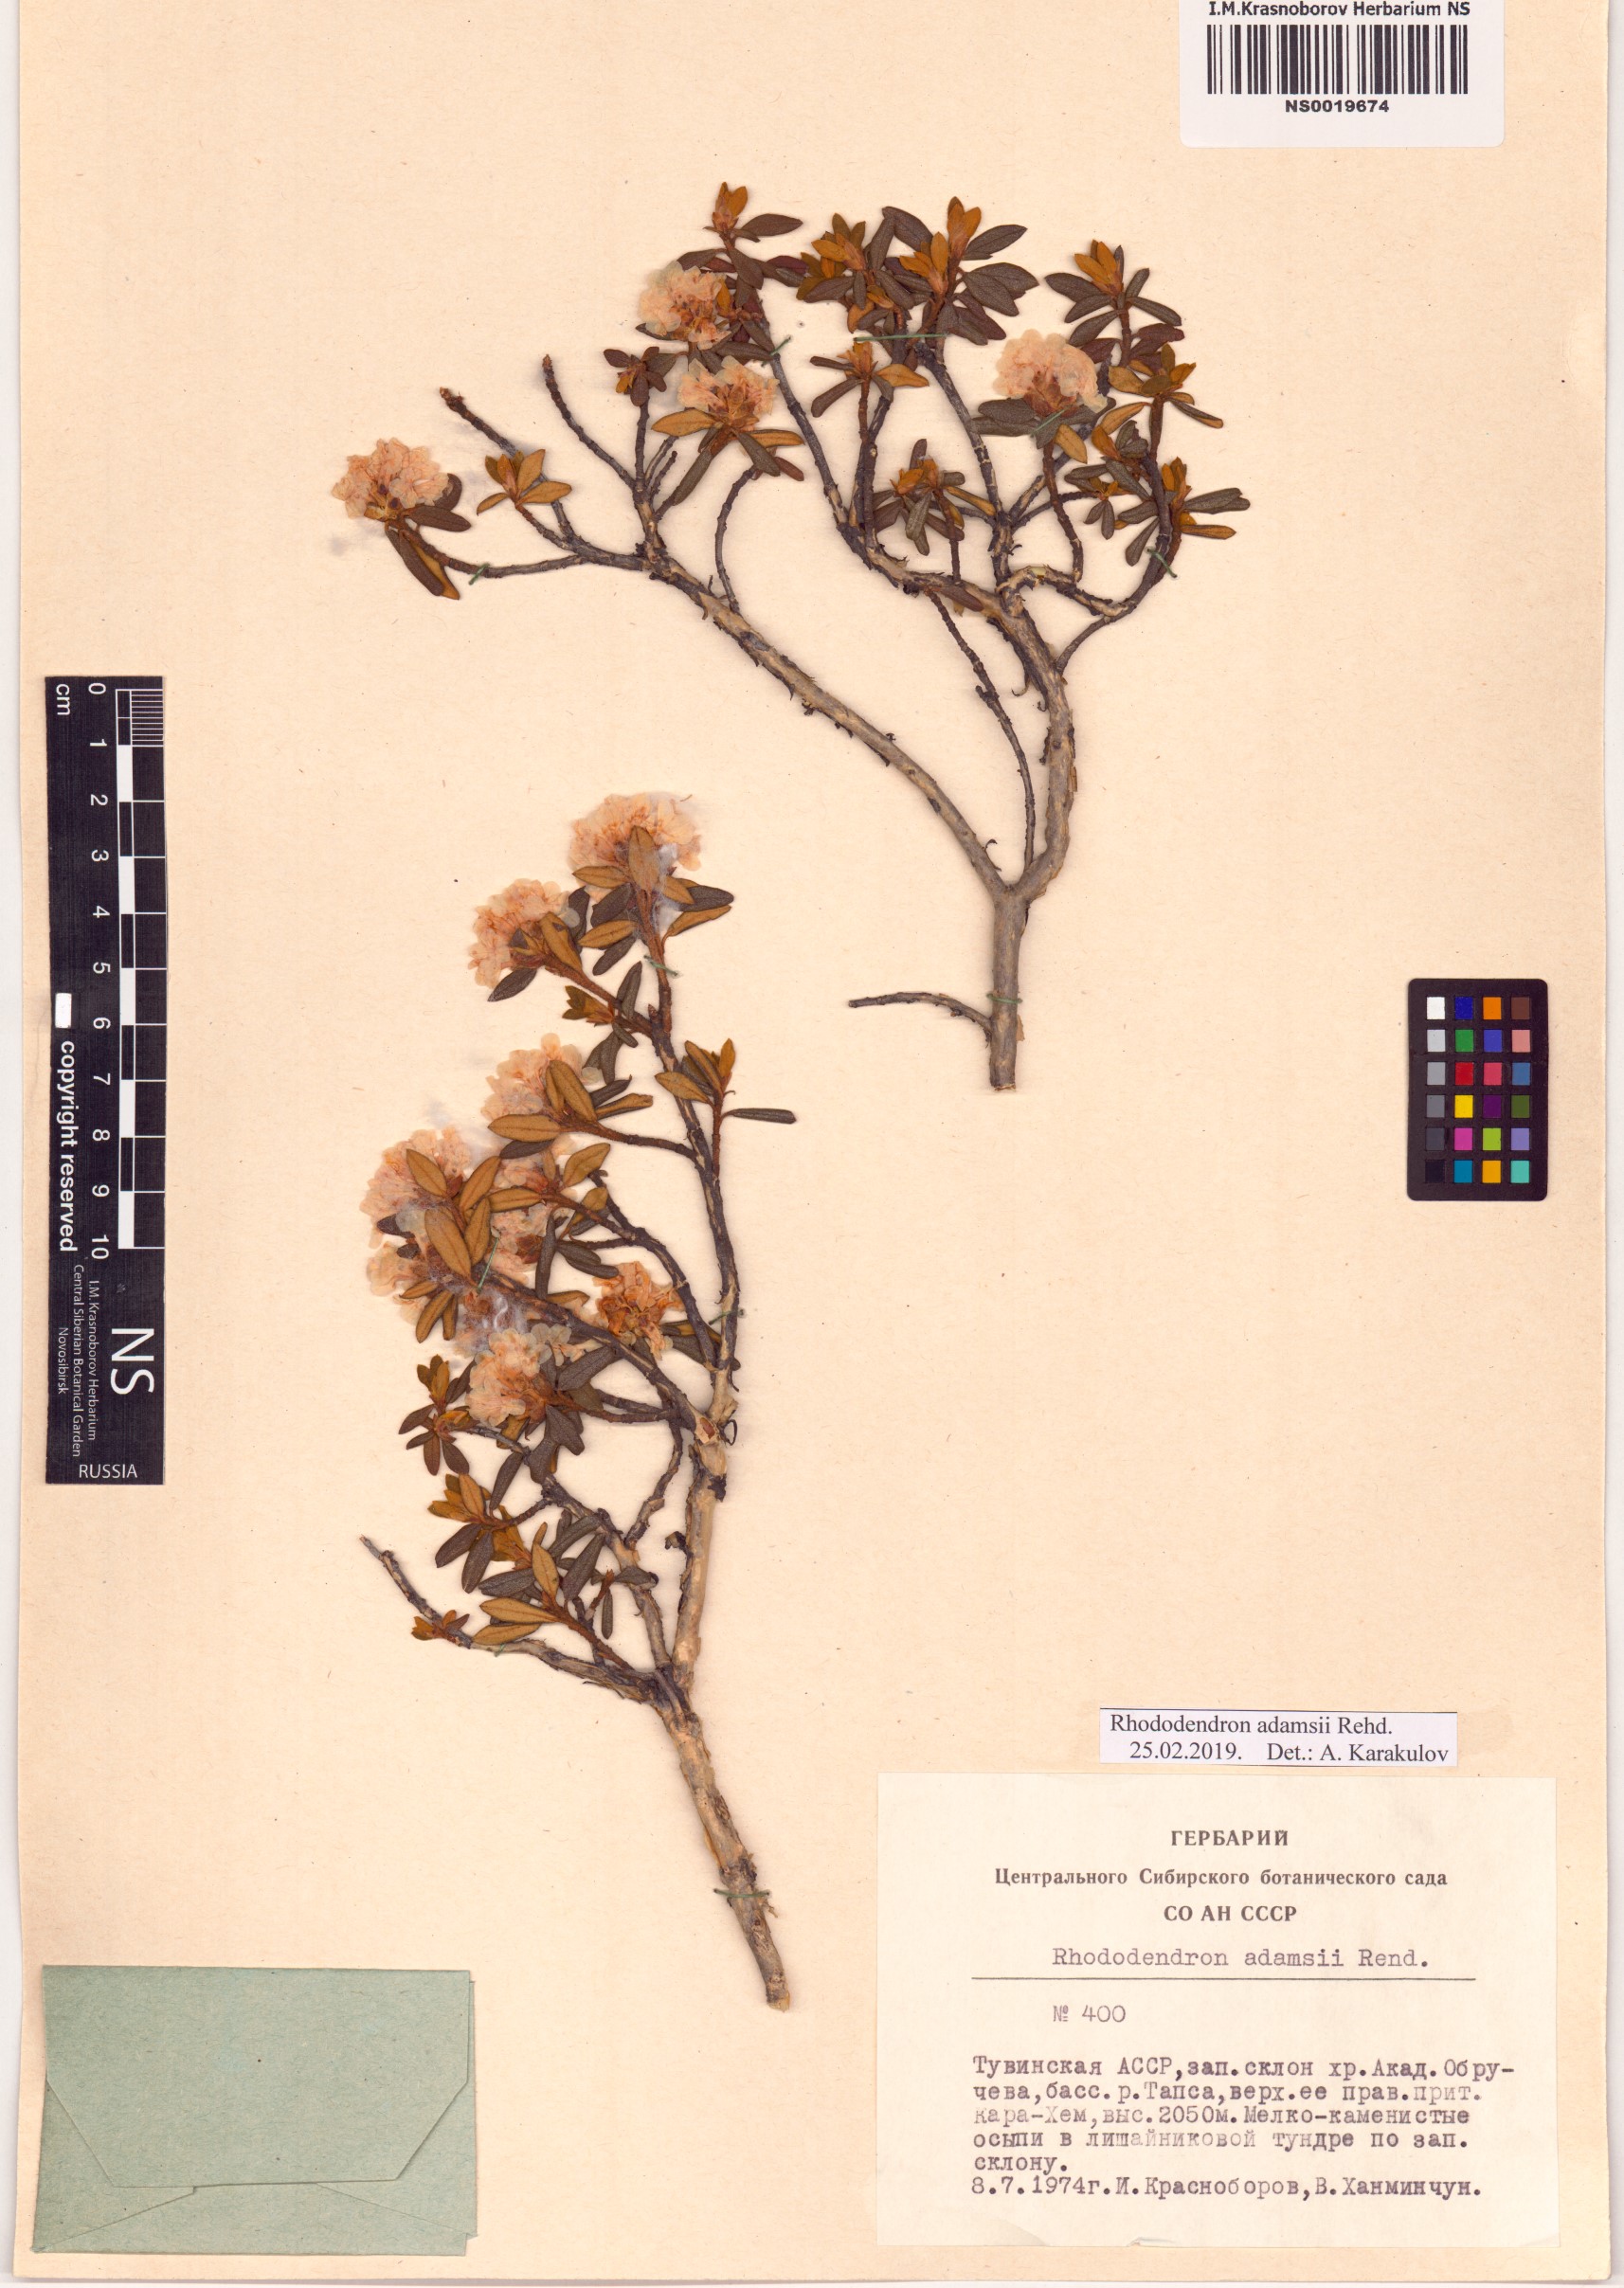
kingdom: Plantae
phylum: Tracheophyta
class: Magnoliopsida
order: Ericales
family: Ericaceae
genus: Rhododendron
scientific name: Rhododendron adamsii
